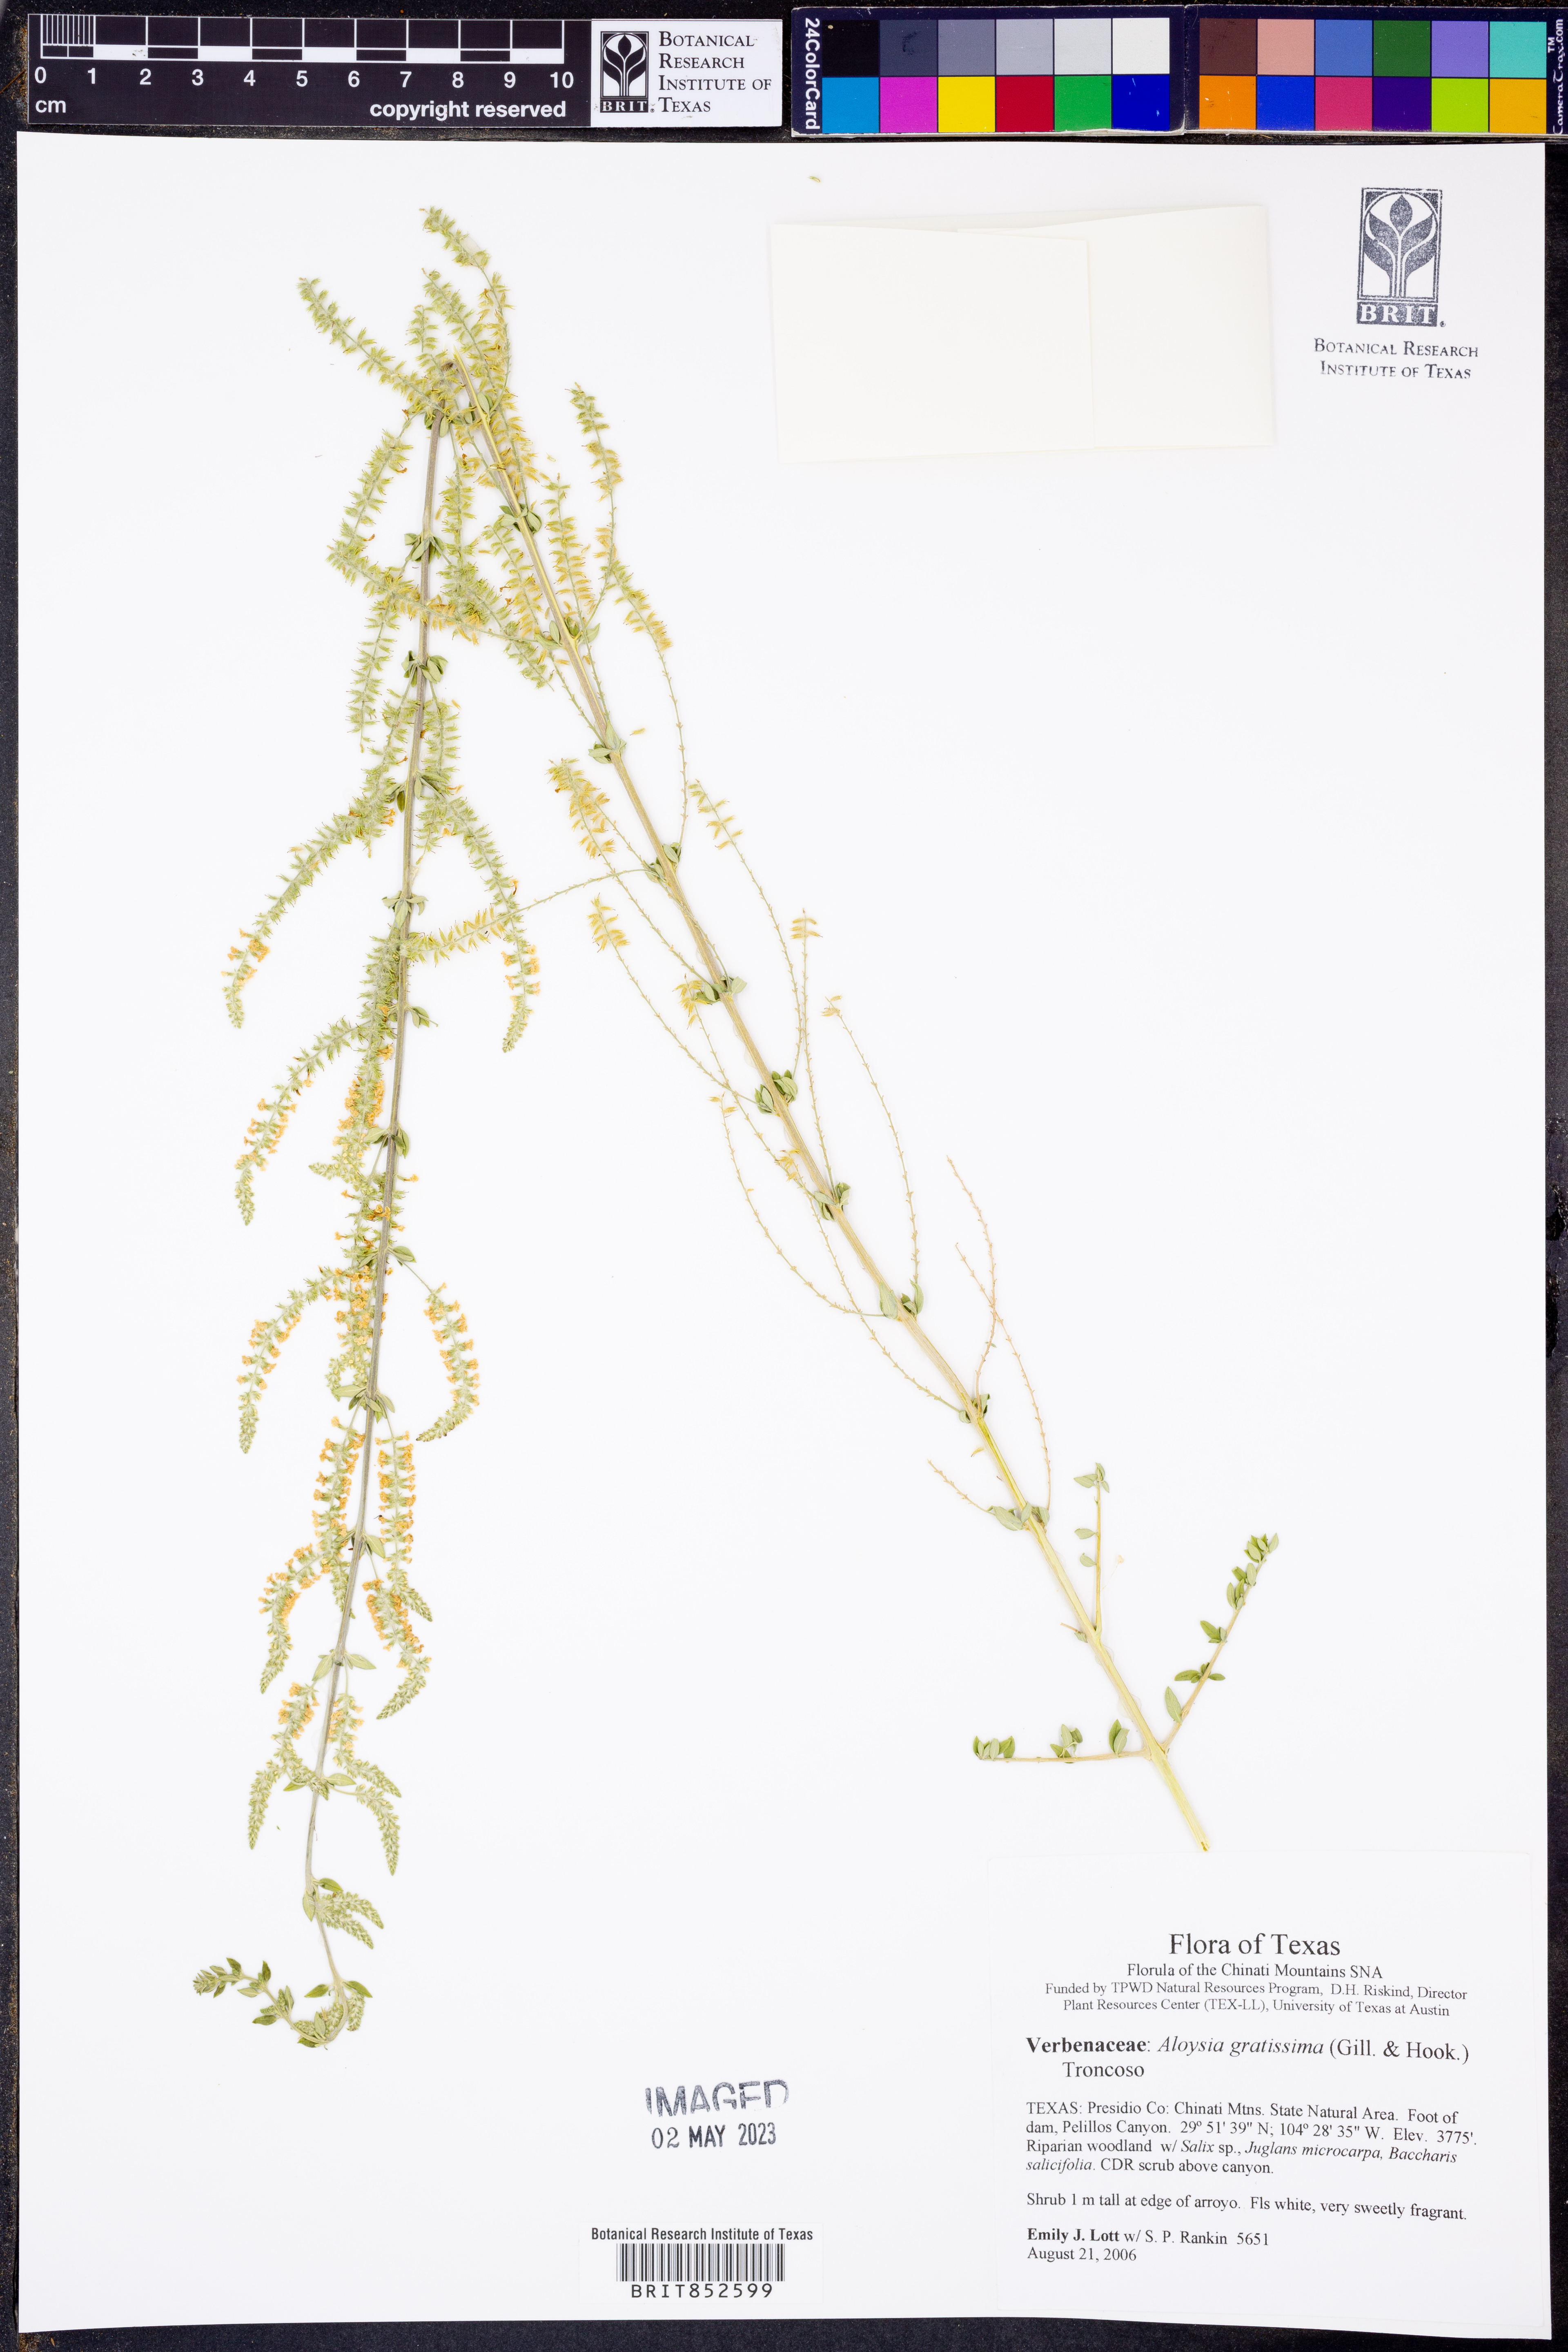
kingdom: Plantae
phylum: Tracheophyta
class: Magnoliopsida
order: Lamiales
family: Verbenaceae
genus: Aloysia
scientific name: Aloysia gratissima
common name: Common bee-brush
